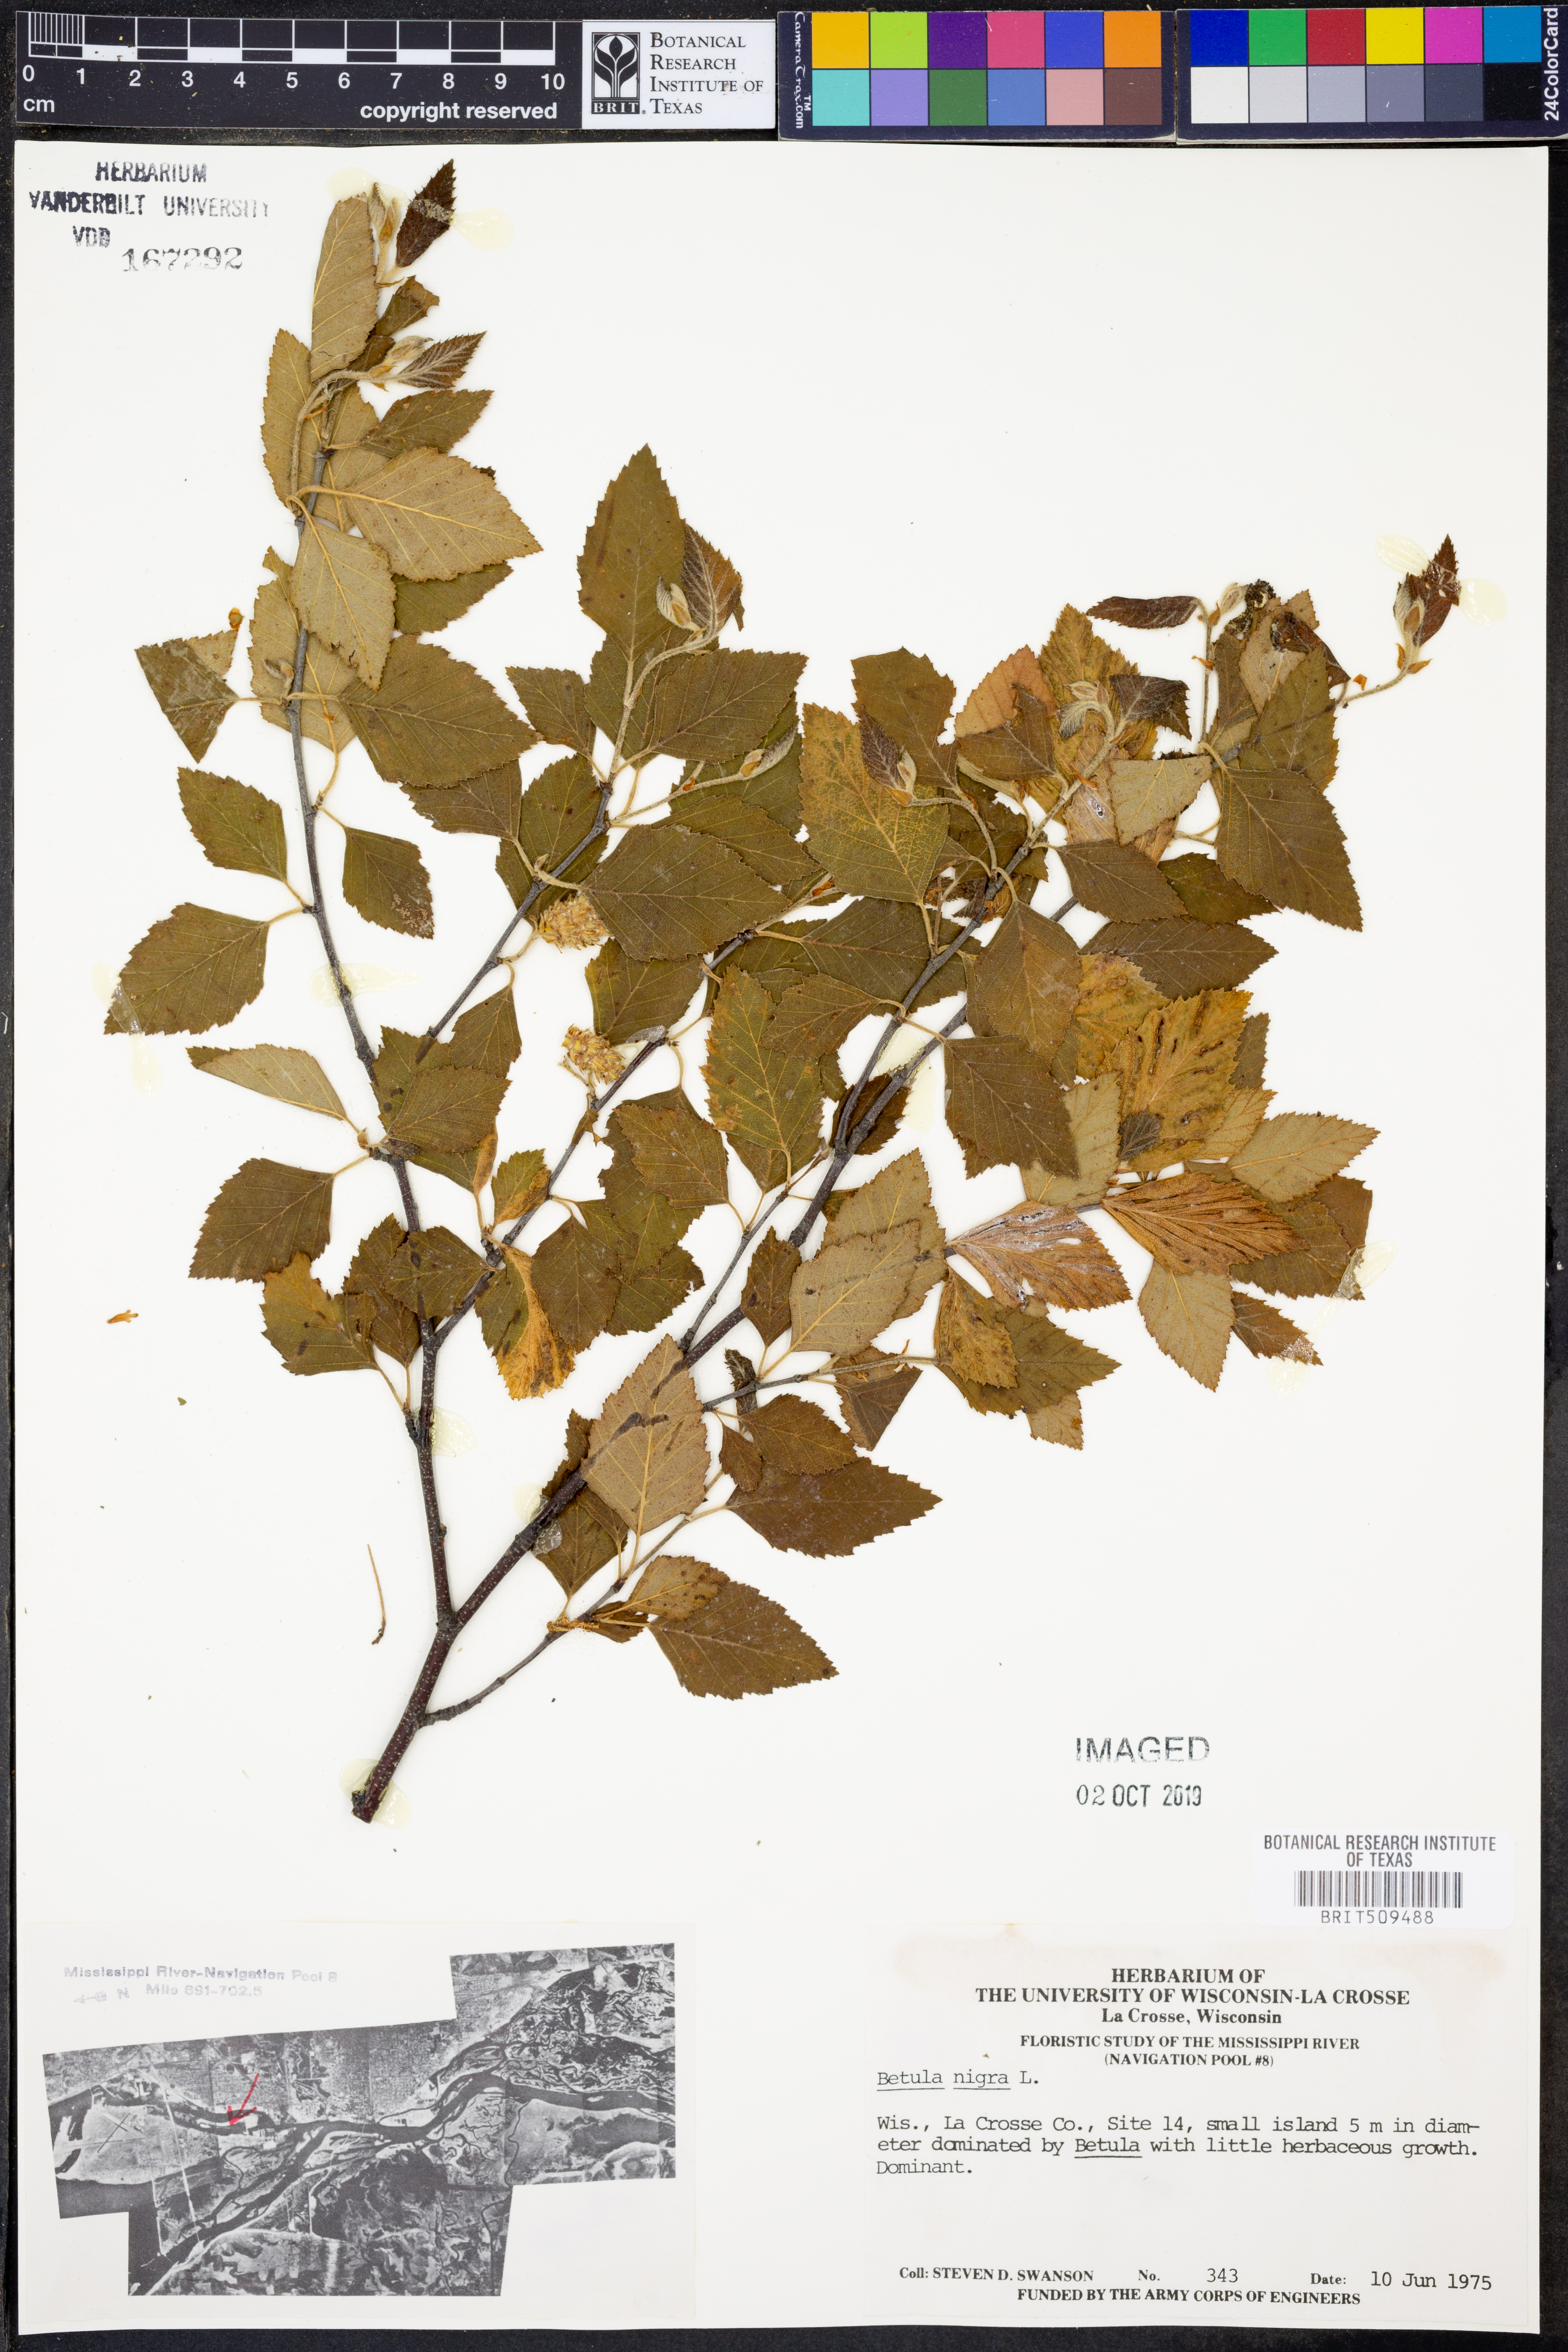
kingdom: Plantae
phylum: Tracheophyta
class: Magnoliopsida
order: Fagales
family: Betulaceae
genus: Betula
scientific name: Betula nigra
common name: Black birch
